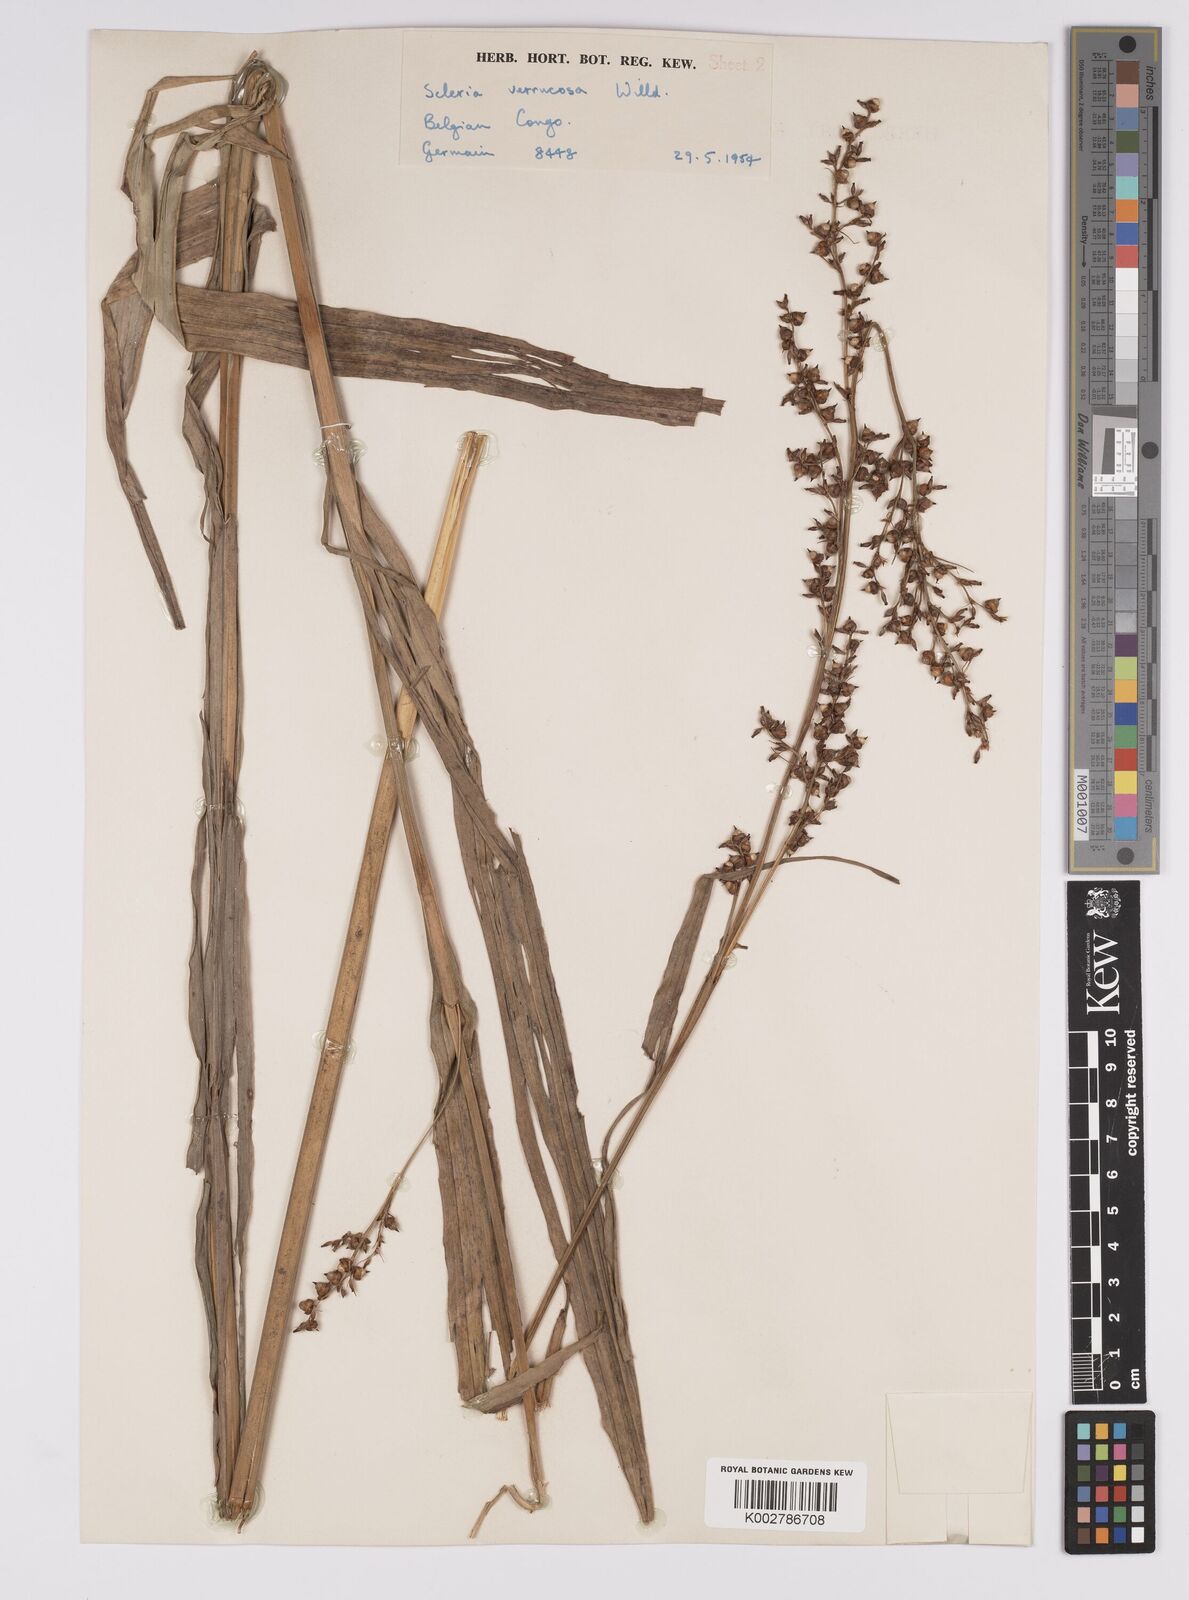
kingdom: Plantae
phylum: Tracheophyta
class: Liliopsida
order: Poales
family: Cyperaceae
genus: Scleria
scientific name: Scleria verrucosa
